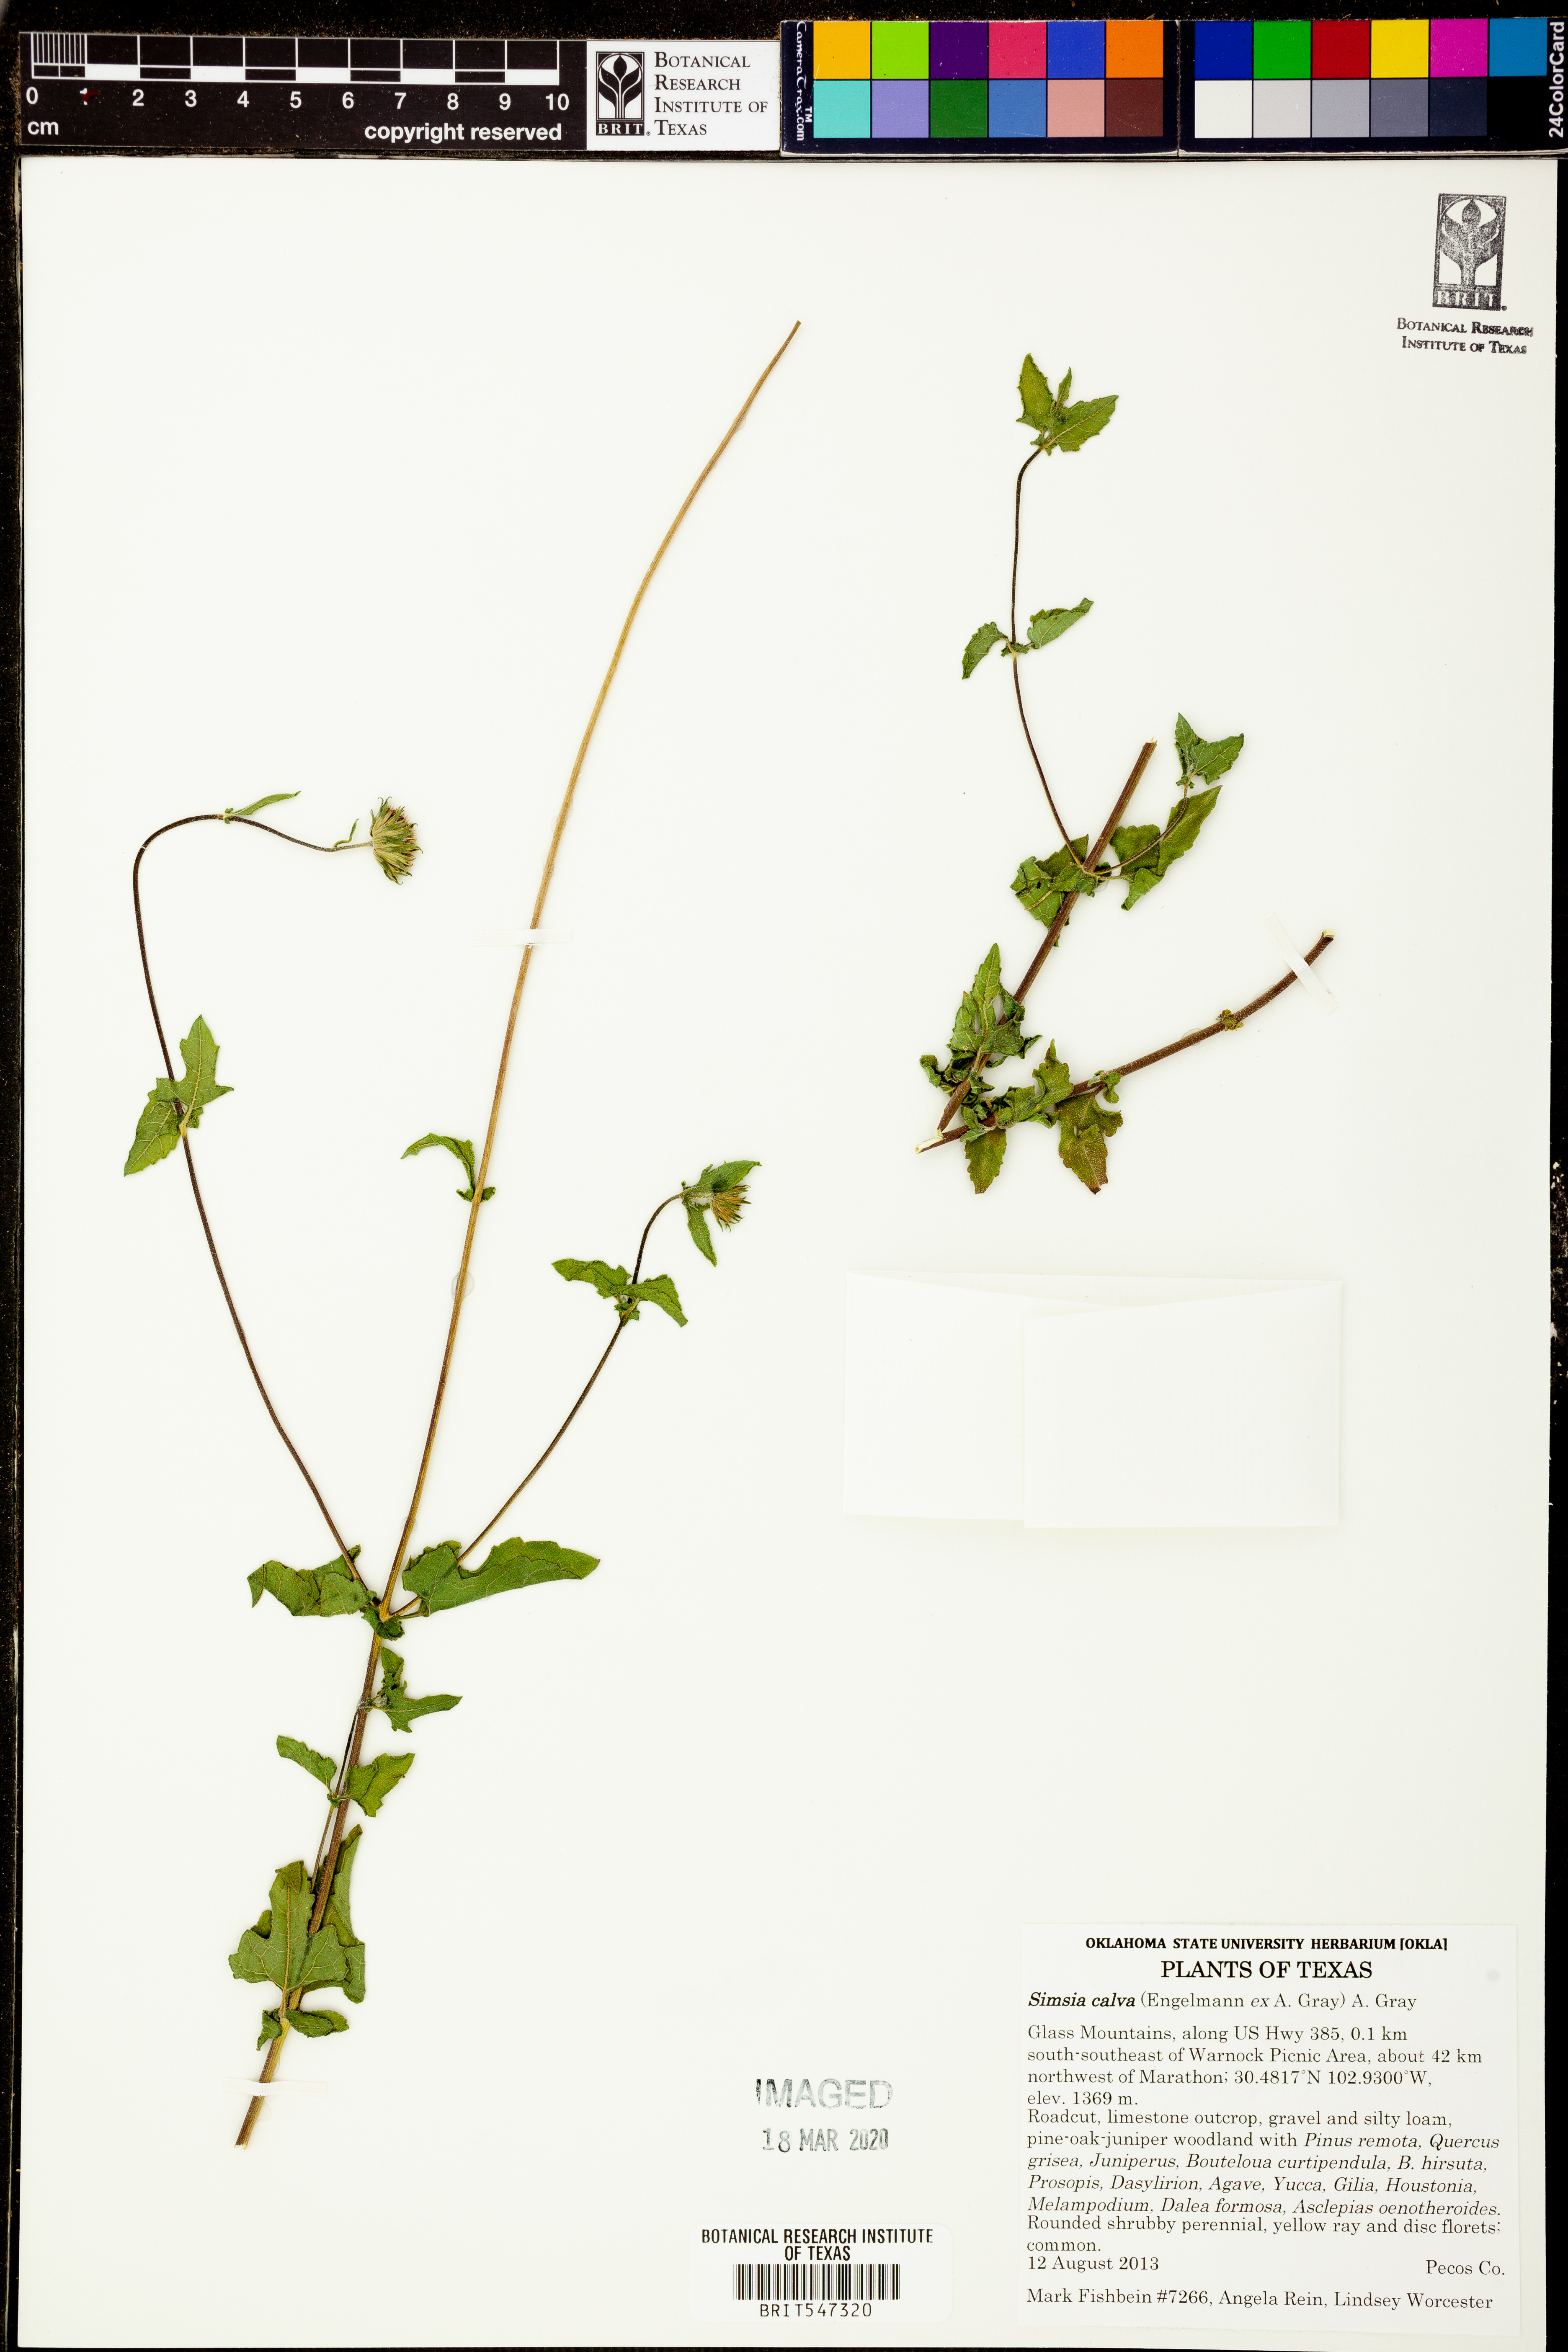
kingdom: Plantae
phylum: Tracheophyta
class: Magnoliopsida
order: Asterales
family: Asteraceae
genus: Simsia
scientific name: Simsia calva
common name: Awnless bush-sunflower
